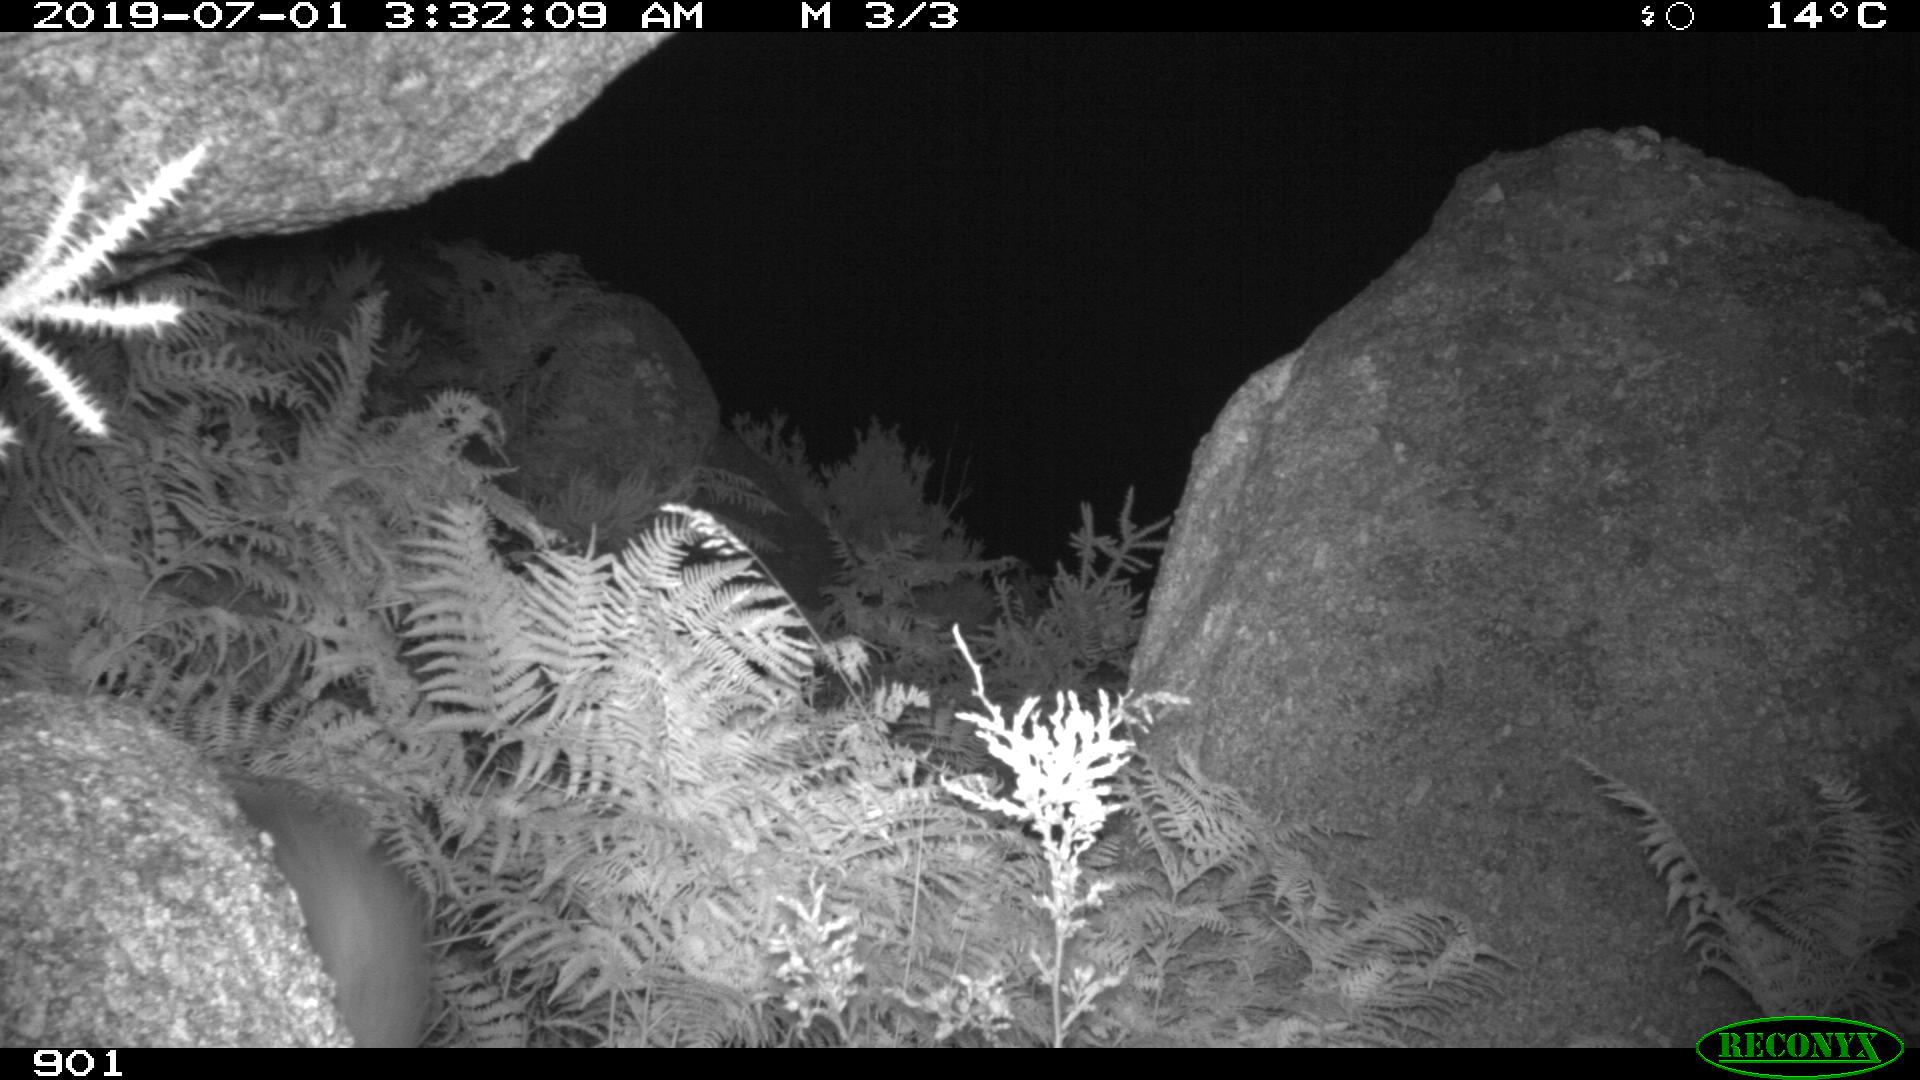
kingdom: Animalia
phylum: Chordata
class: Mammalia
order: Carnivora
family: Mustelidae
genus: Martes
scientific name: Martes foina
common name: Beech marten
